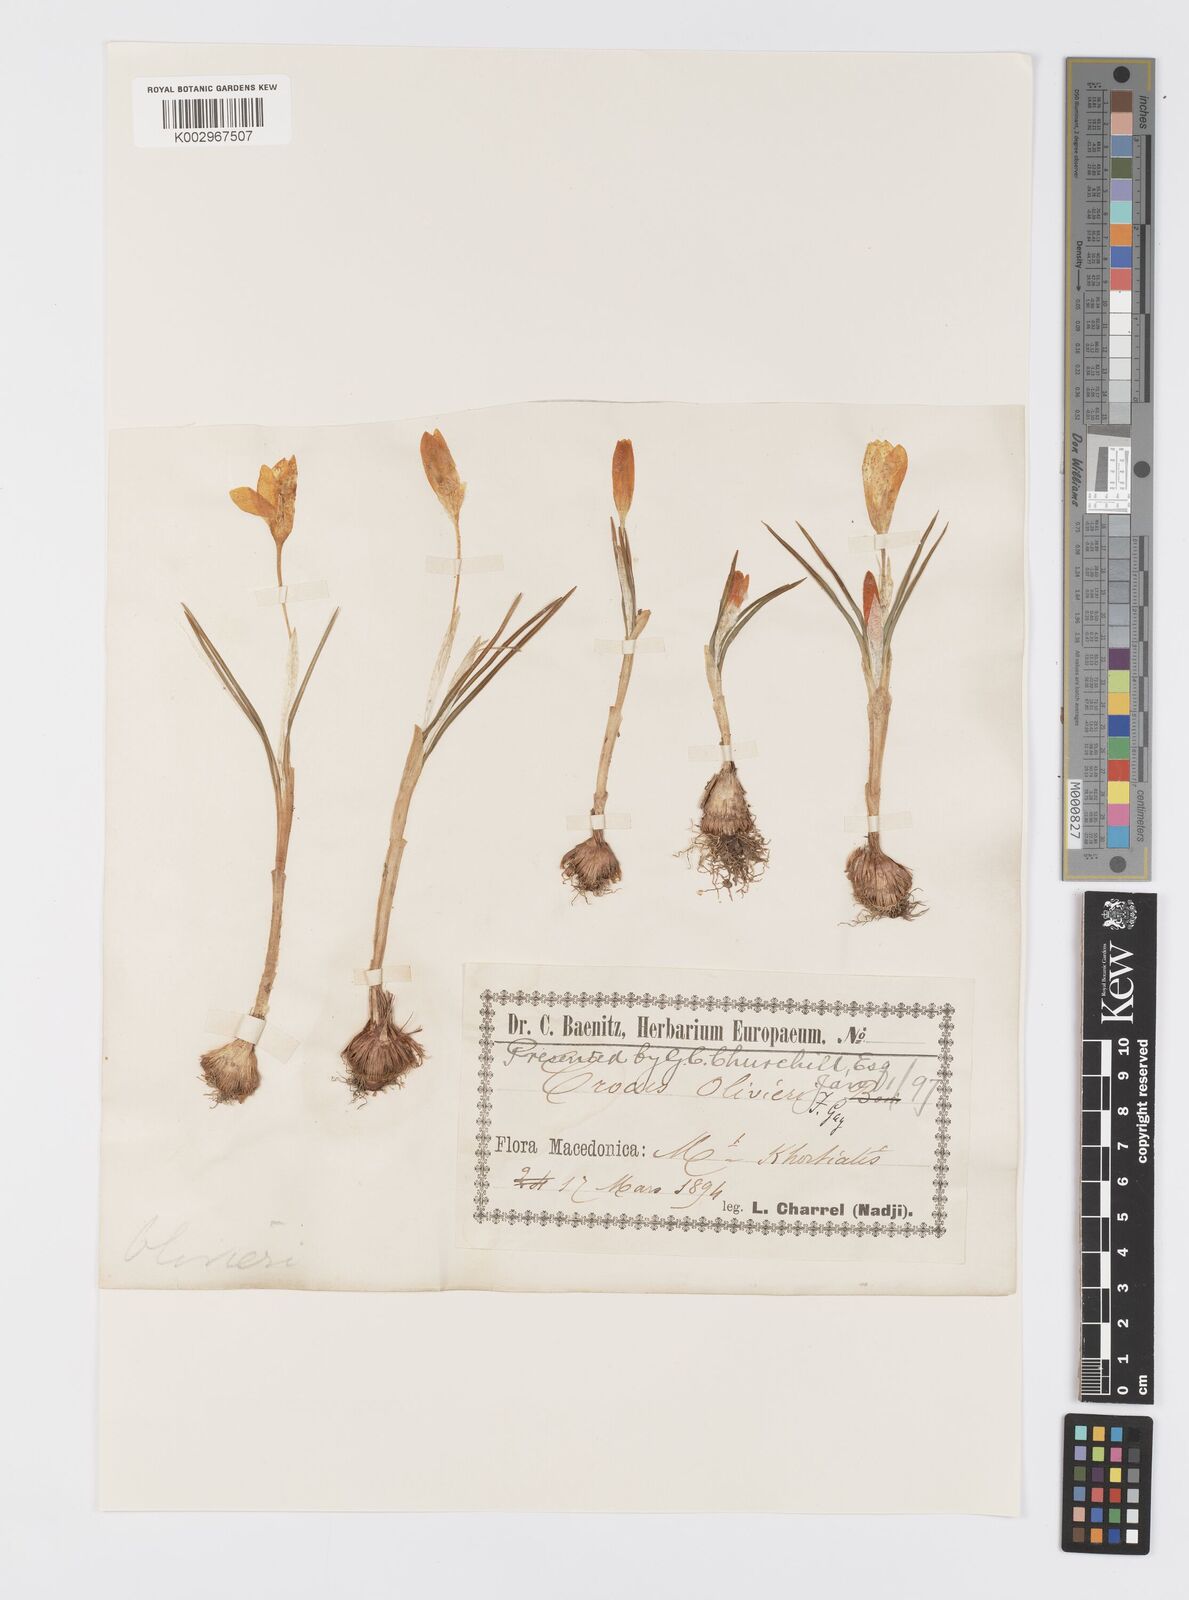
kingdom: Plantae
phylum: Tracheophyta
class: Liliopsida
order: Asparagales
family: Iridaceae
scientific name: Iridaceae
